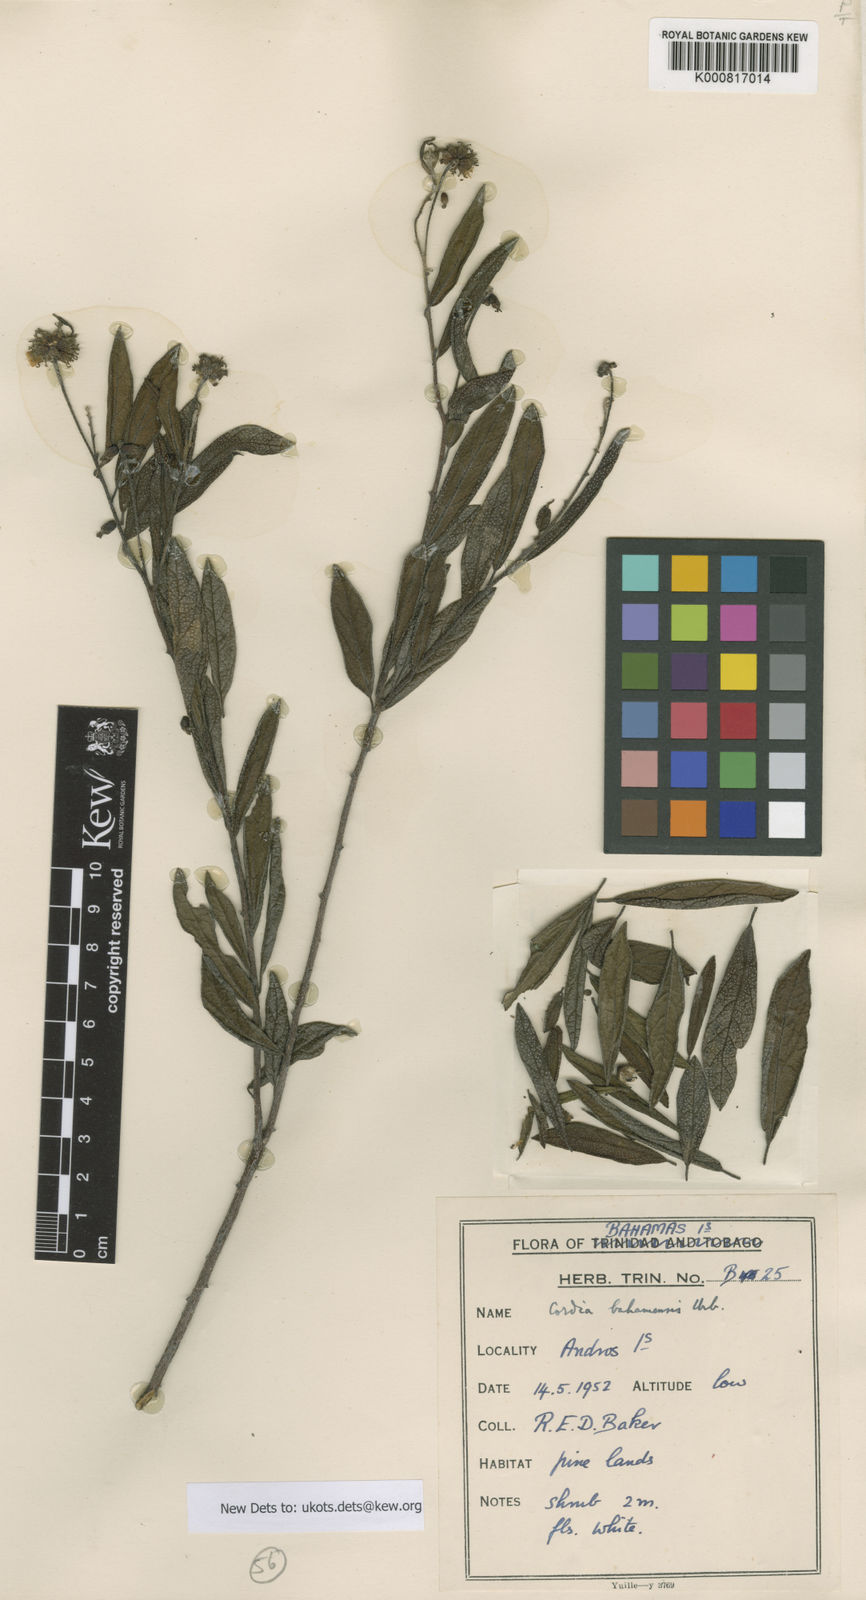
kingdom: Plantae
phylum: Tracheophyta
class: Magnoliopsida
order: Boraginales
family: Cordiaceae
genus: Varronia
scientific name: Varronia bahamensis
